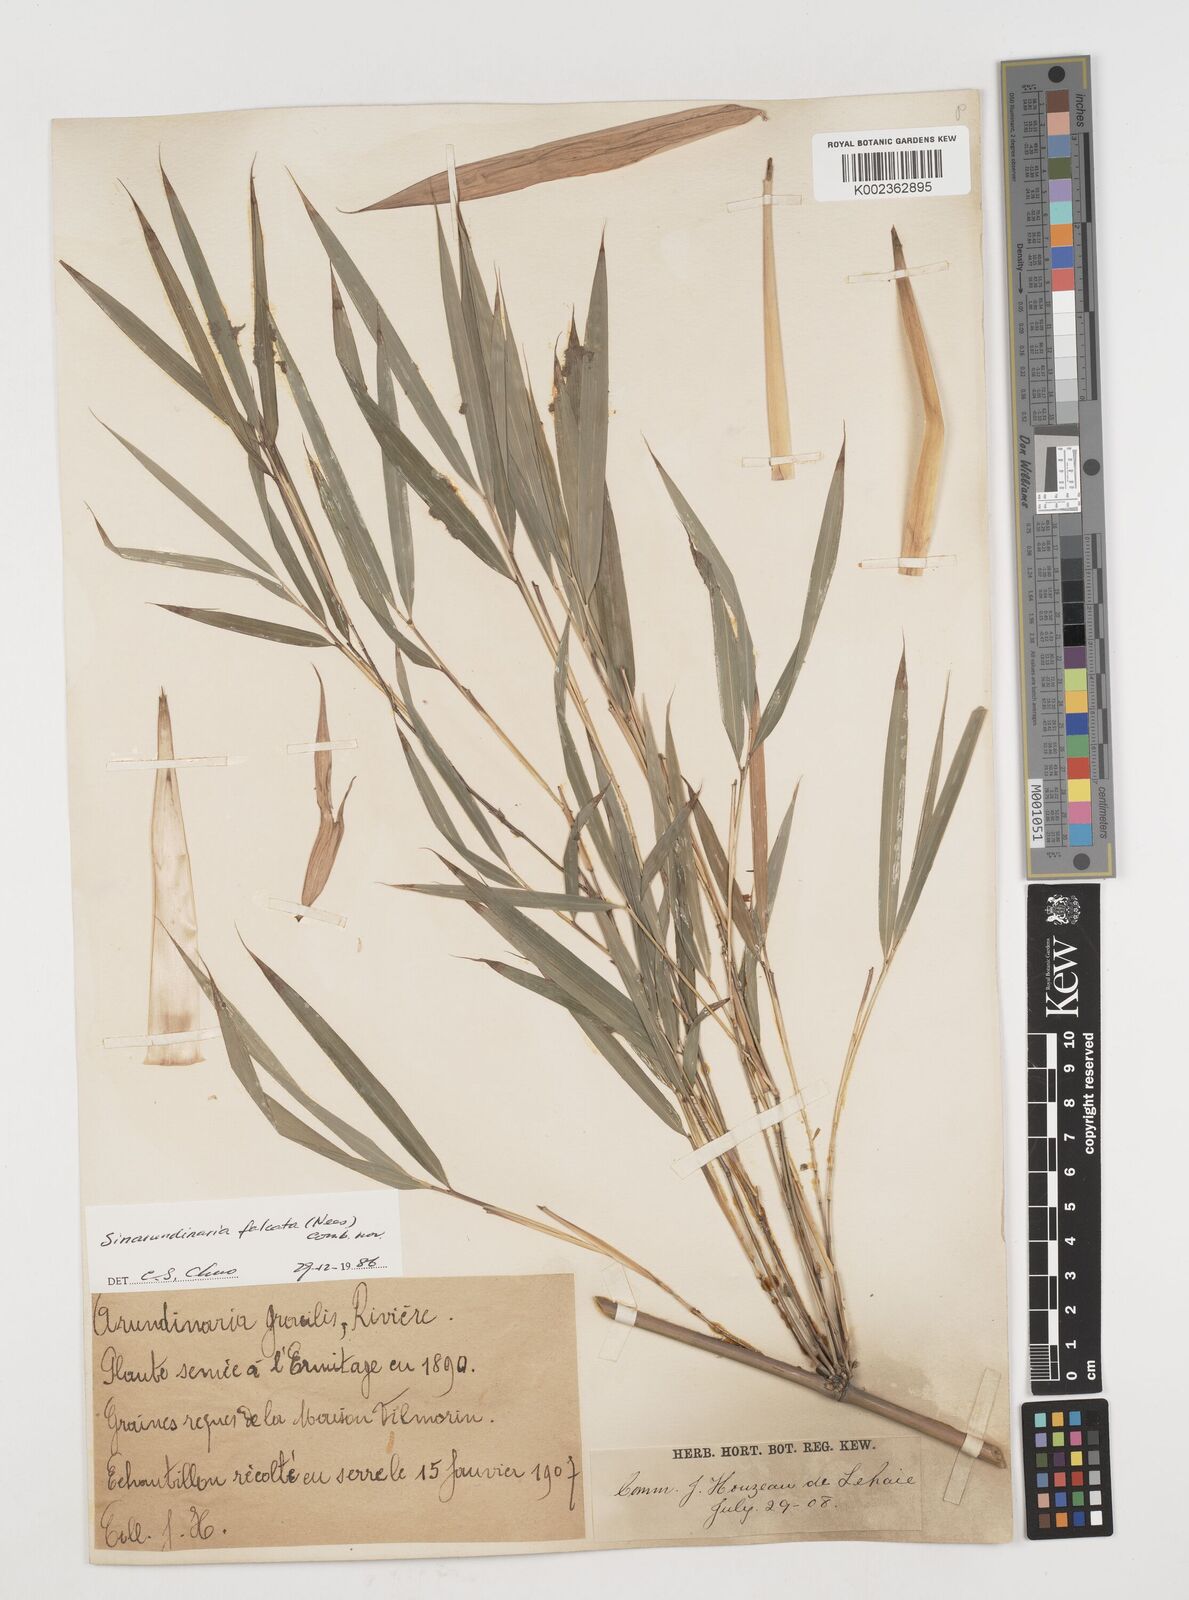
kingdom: Plantae
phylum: Tracheophyta
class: Liliopsida
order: Poales
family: Poaceae
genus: Drepanostachyum
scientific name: Drepanostachyum
